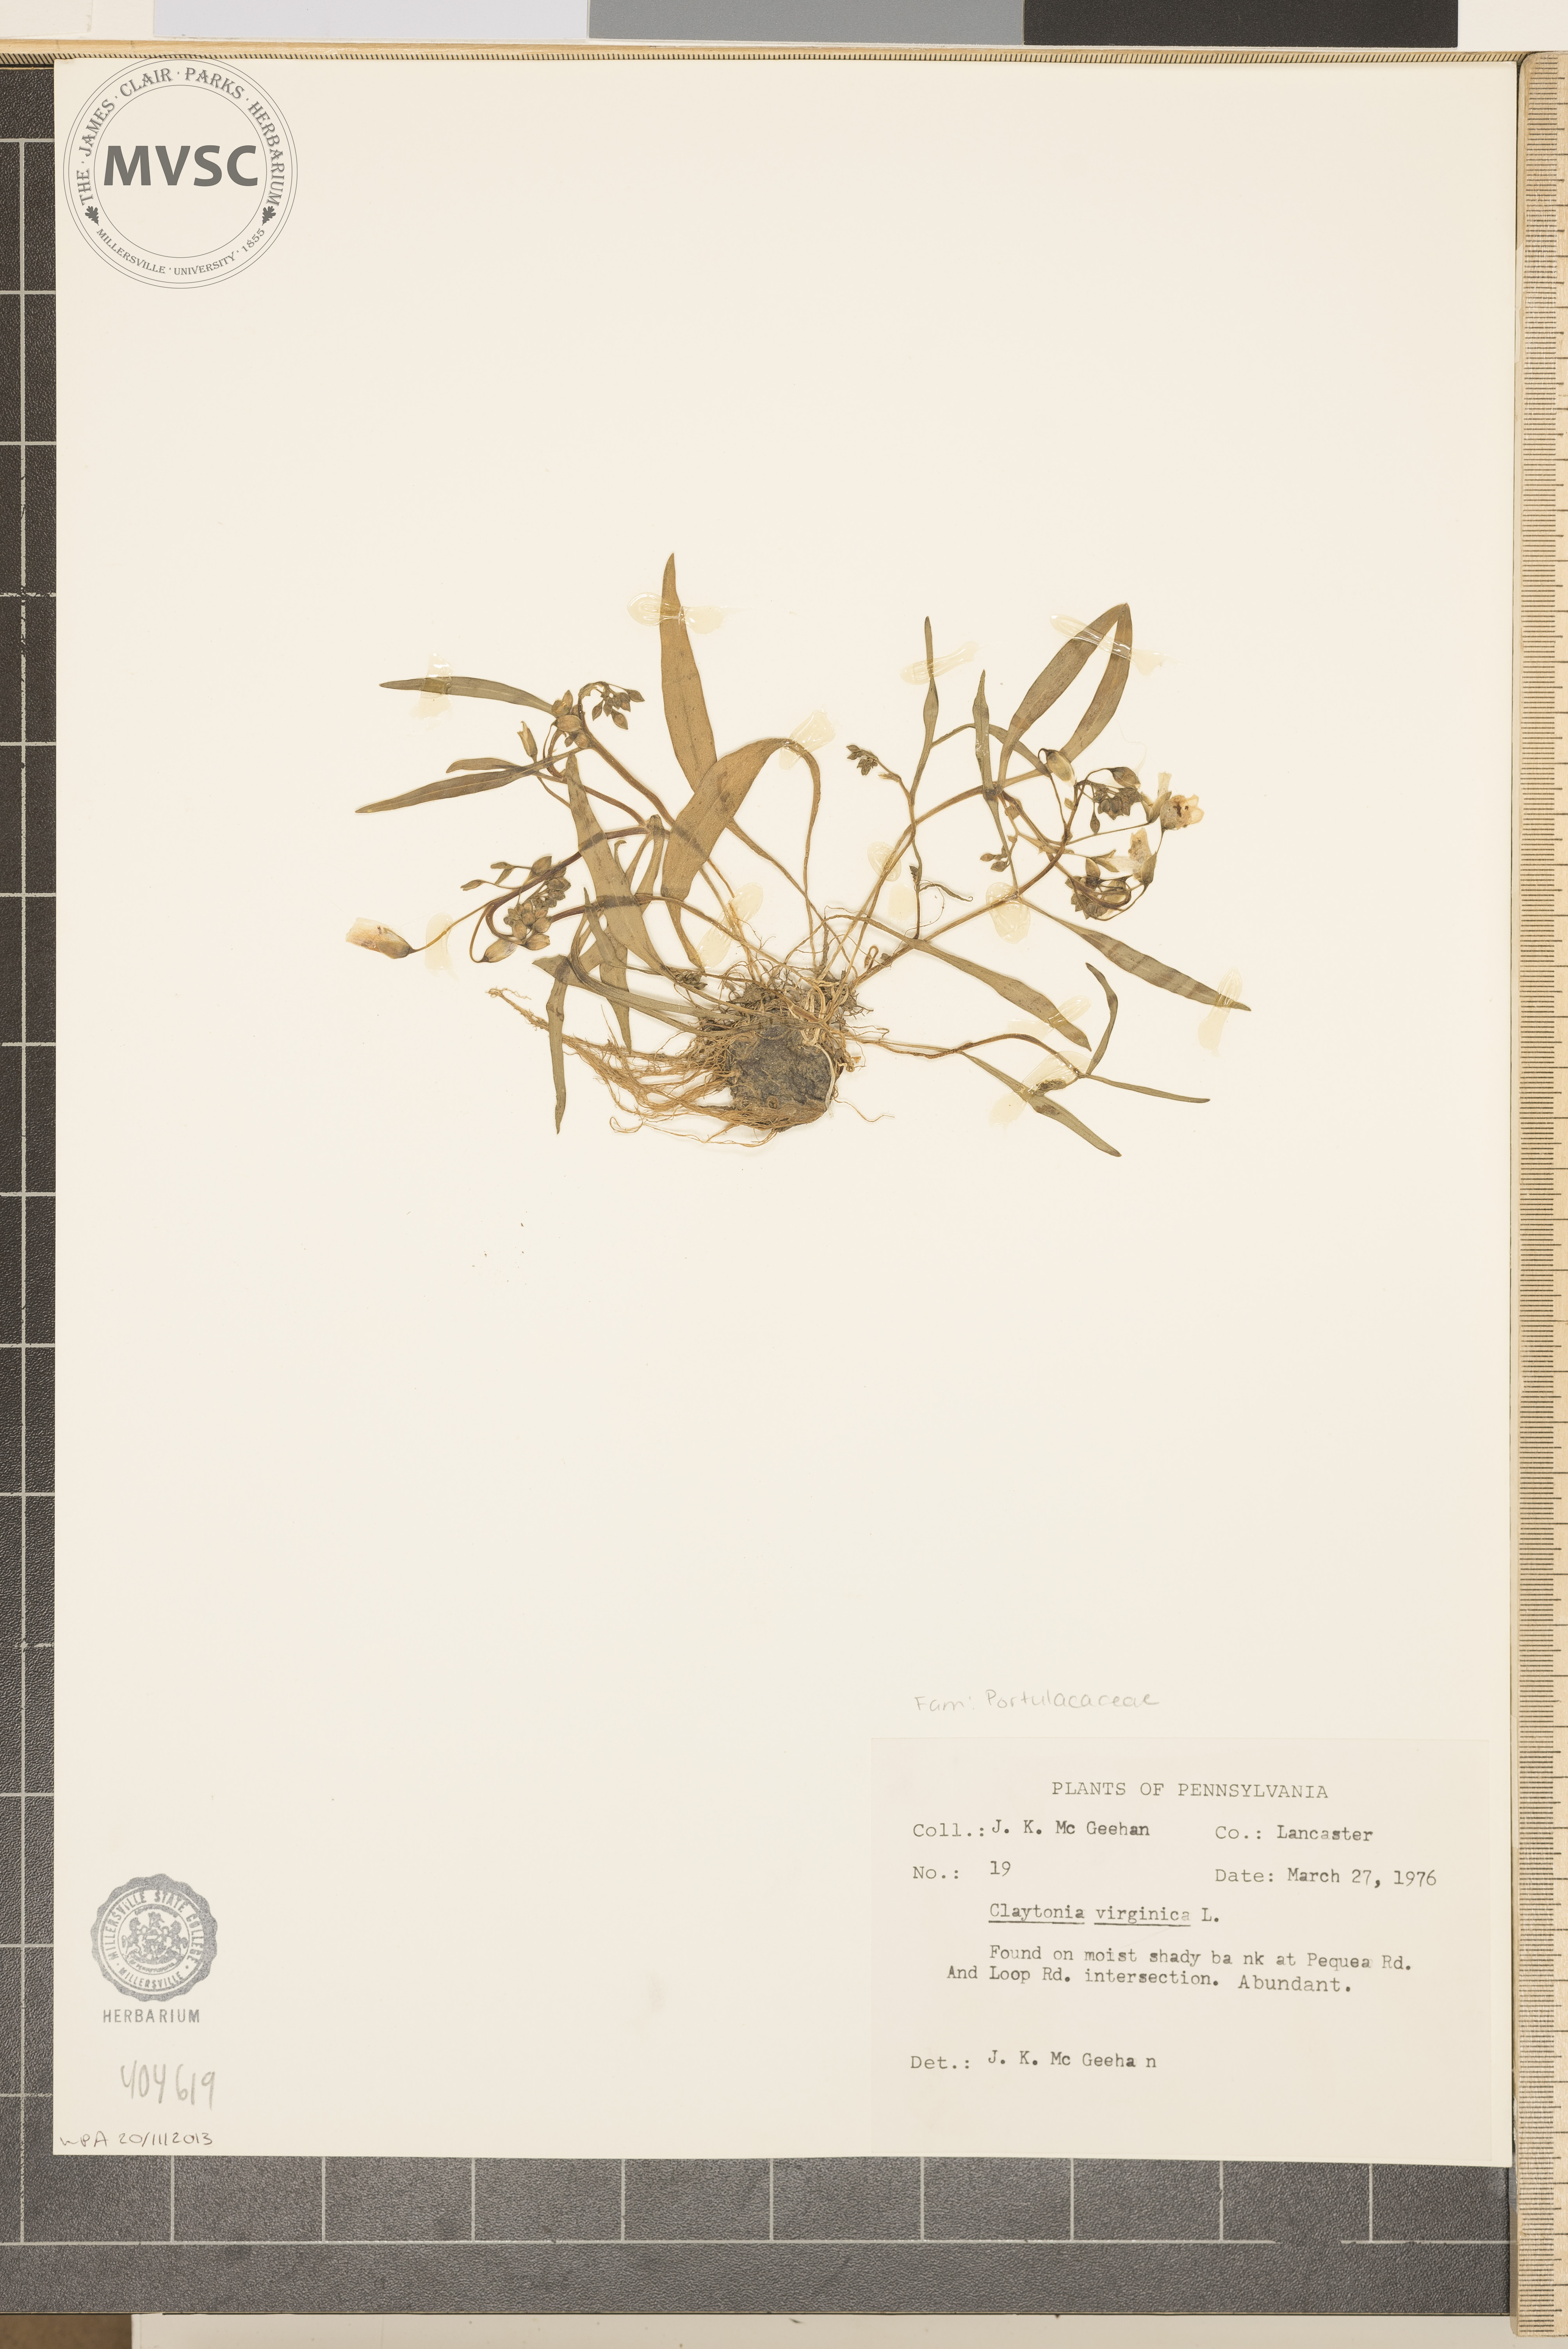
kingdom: Plantae
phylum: Tracheophyta
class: Magnoliopsida
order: Caryophyllales
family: Montiaceae
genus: Claytonia
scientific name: Claytonia virginica
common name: Virginia springbeauty
